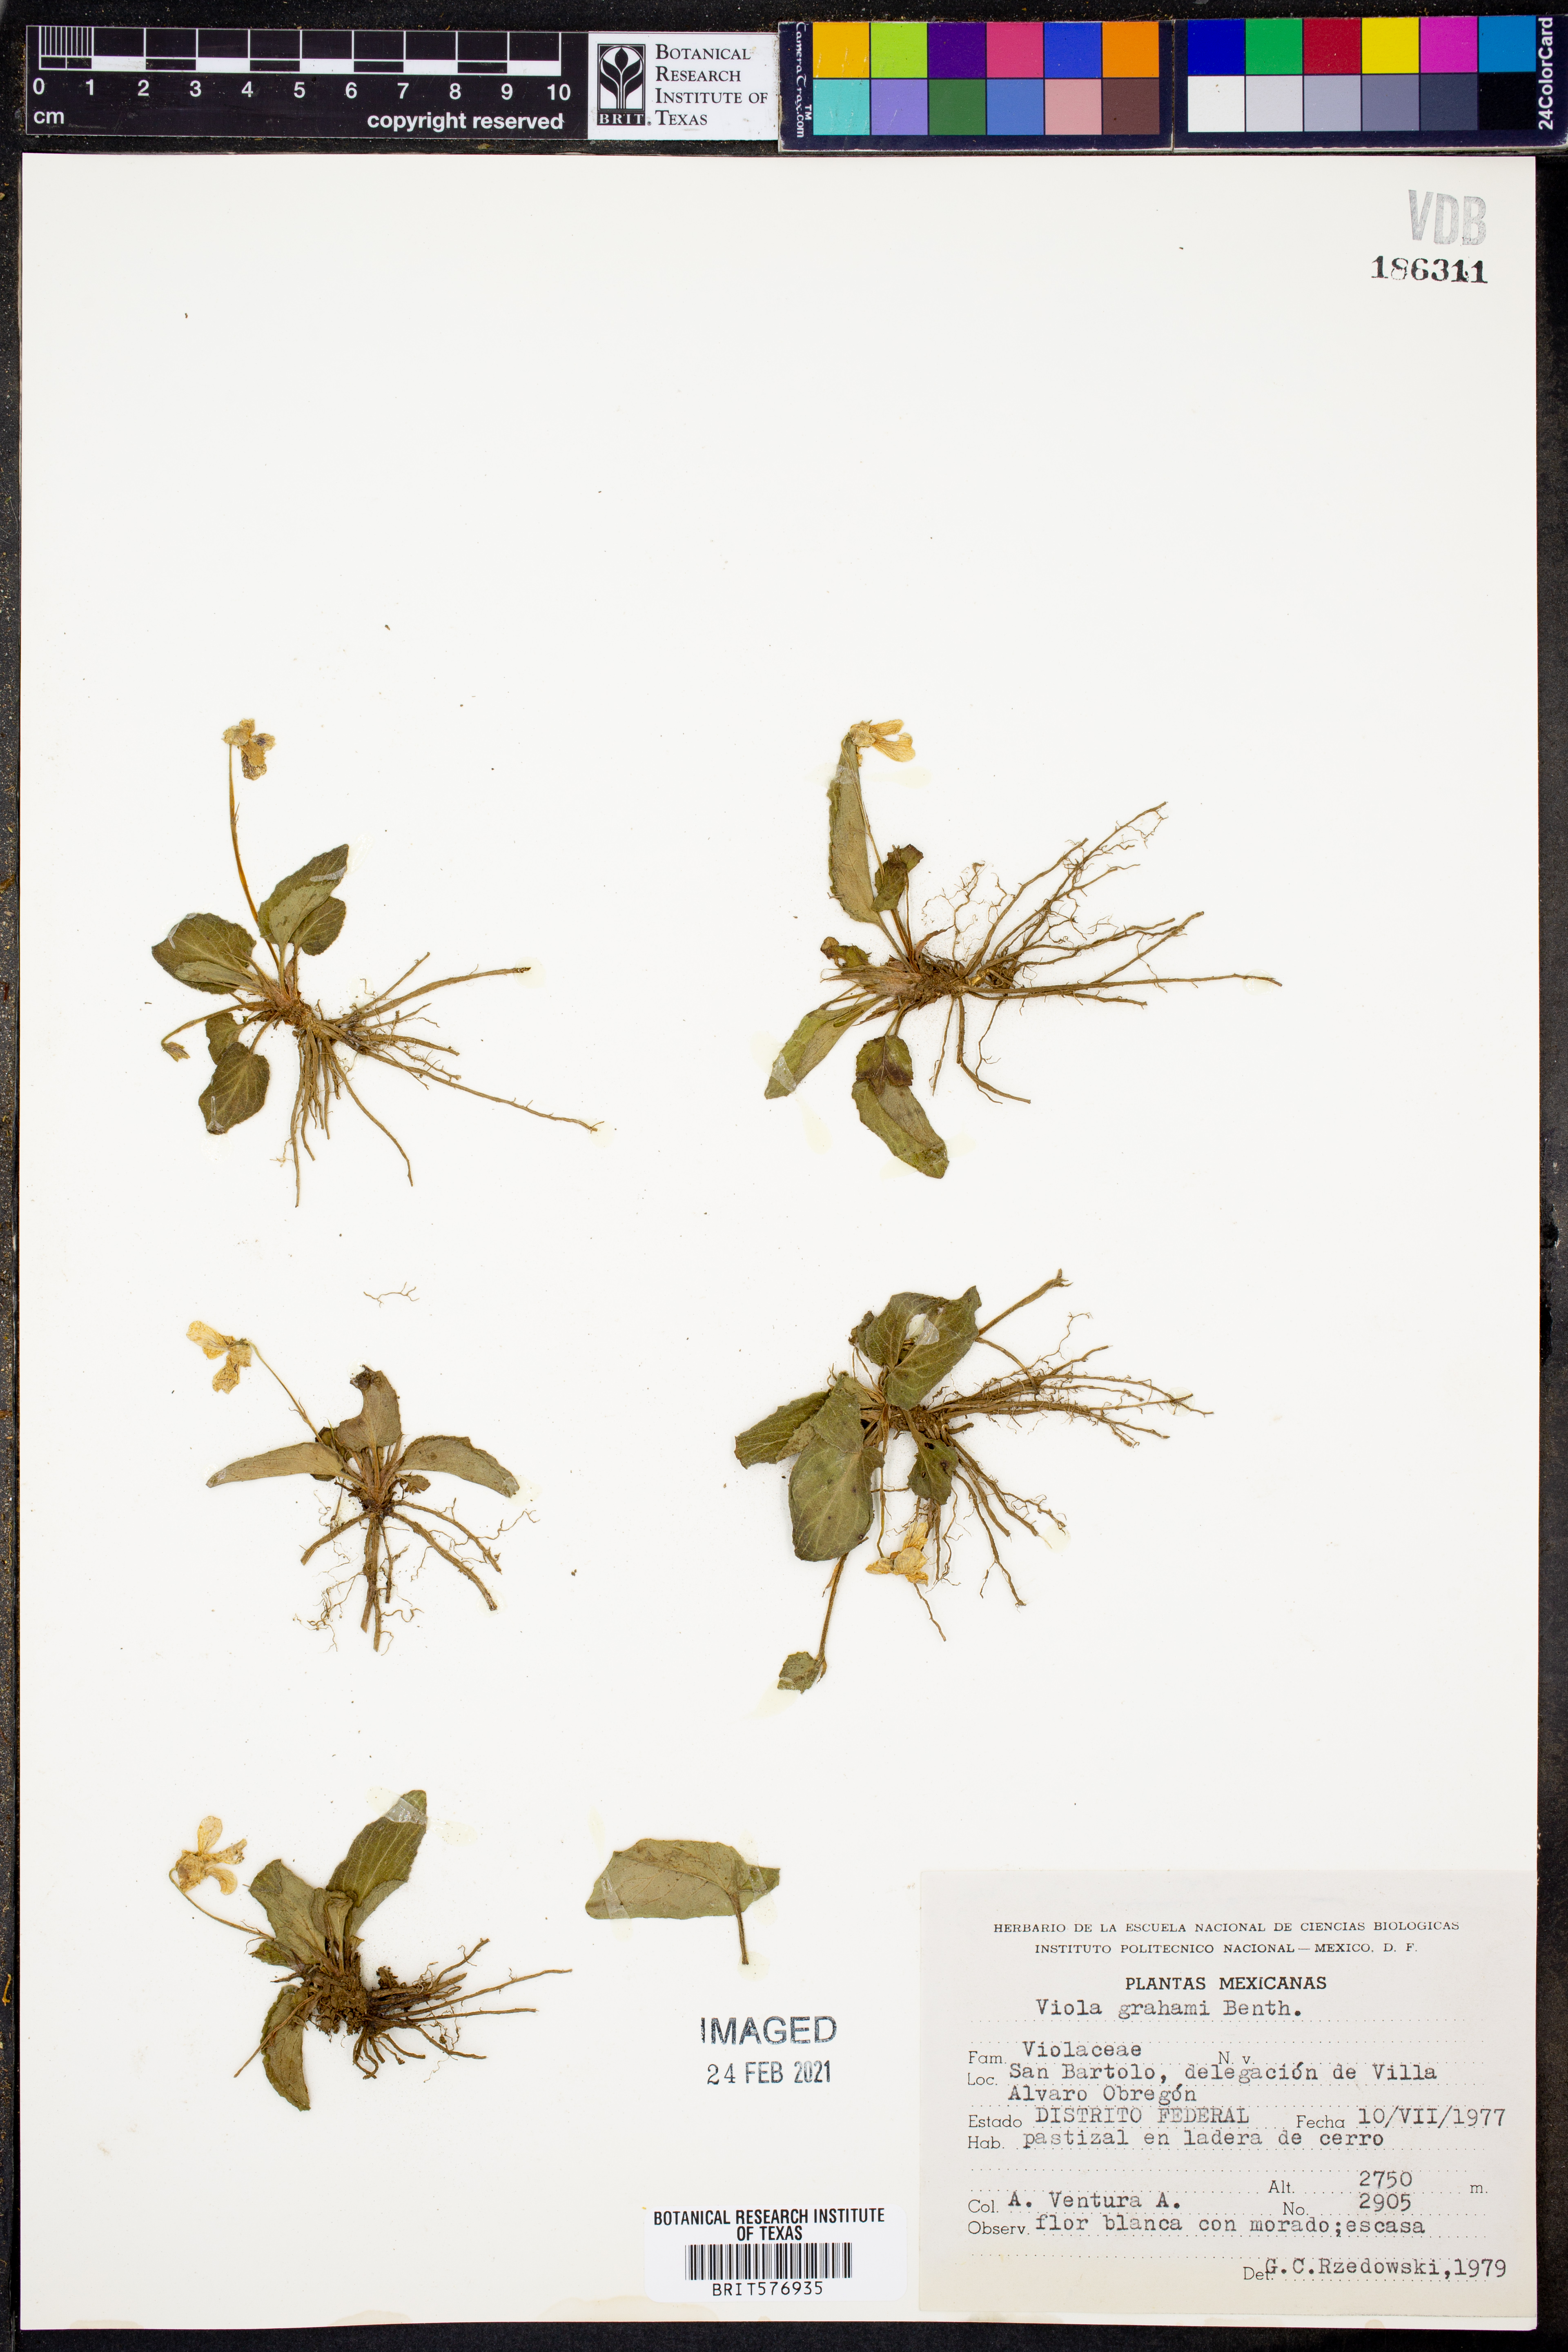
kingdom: Plantae
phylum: Tracheophyta
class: Magnoliopsida
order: Malpighiales
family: Violaceae
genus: Viola
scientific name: Viola grahamii
